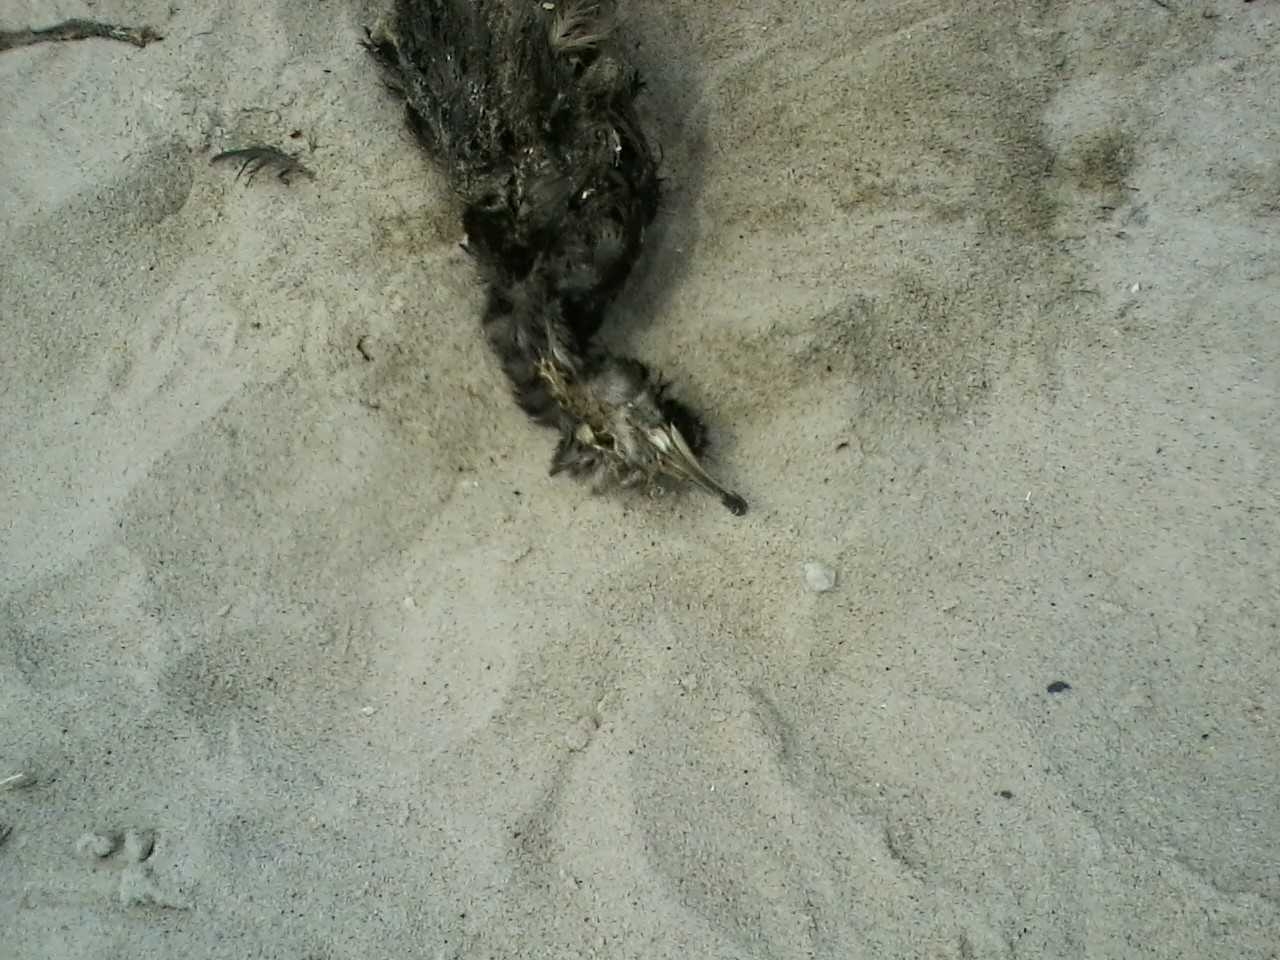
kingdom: Animalia
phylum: Chordata
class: Aves
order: Procellariiformes
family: Procellariidae
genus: Puffinus
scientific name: Puffinus gravis
